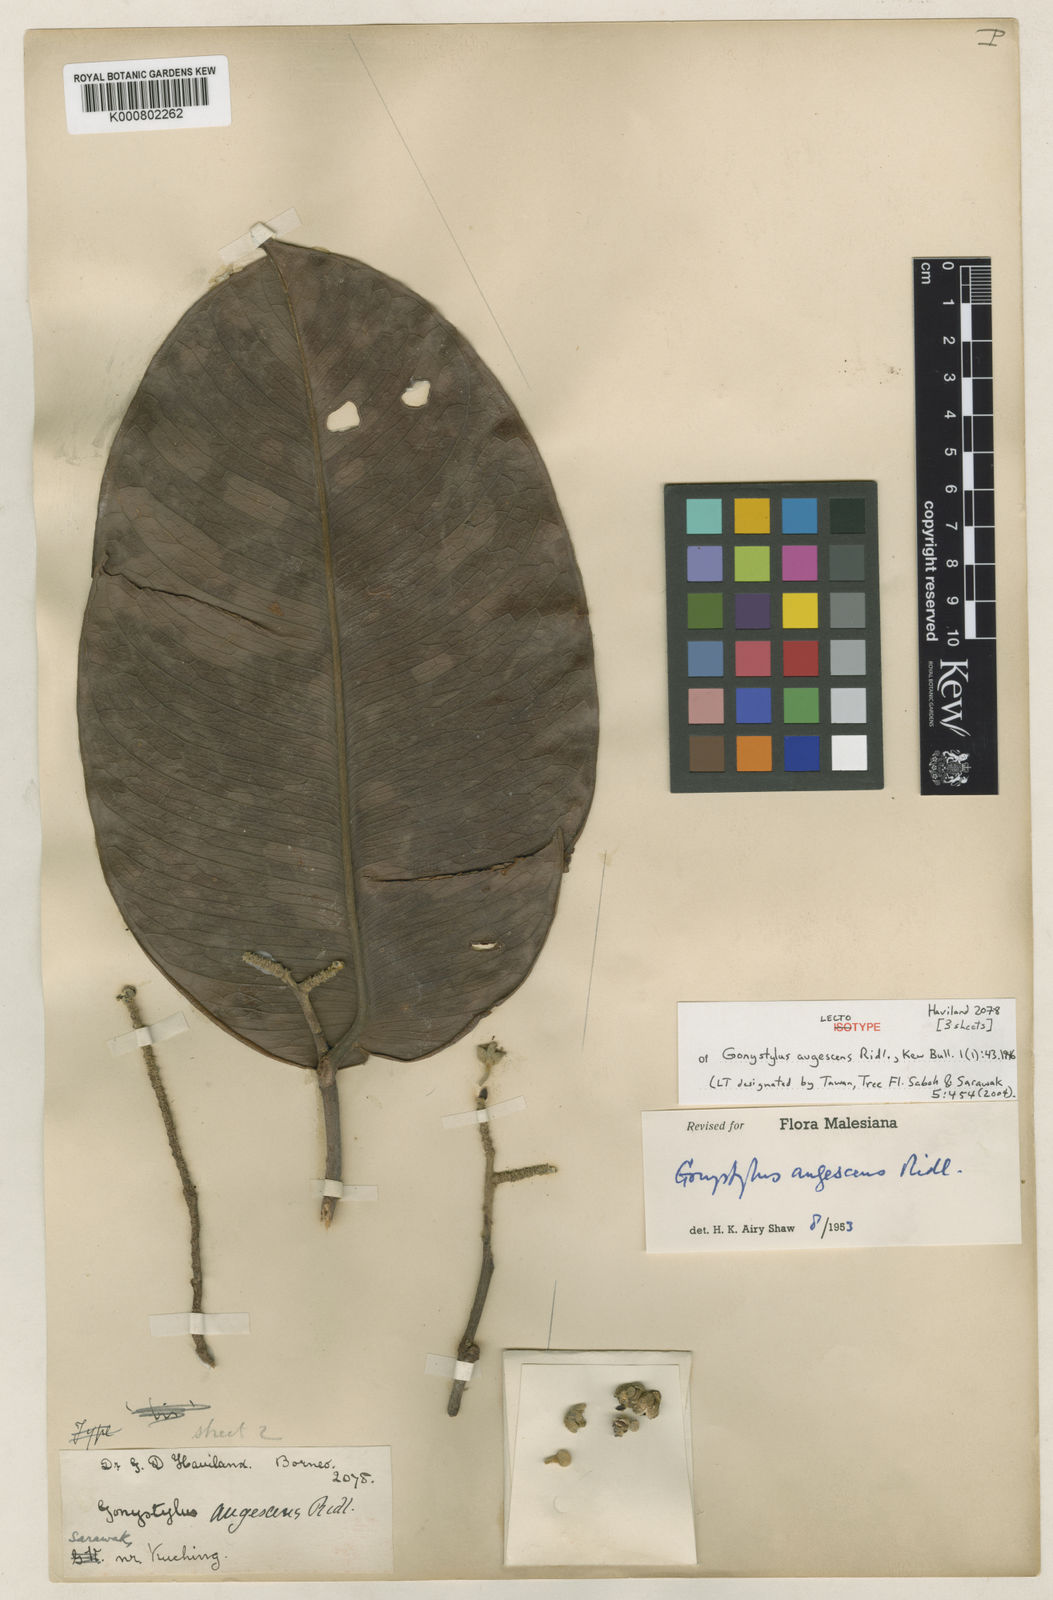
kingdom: Plantae
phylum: Tracheophyta
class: Magnoliopsida
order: Malvales
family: Thymelaeaceae
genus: Gonystylus
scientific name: Gonystylus augescens
